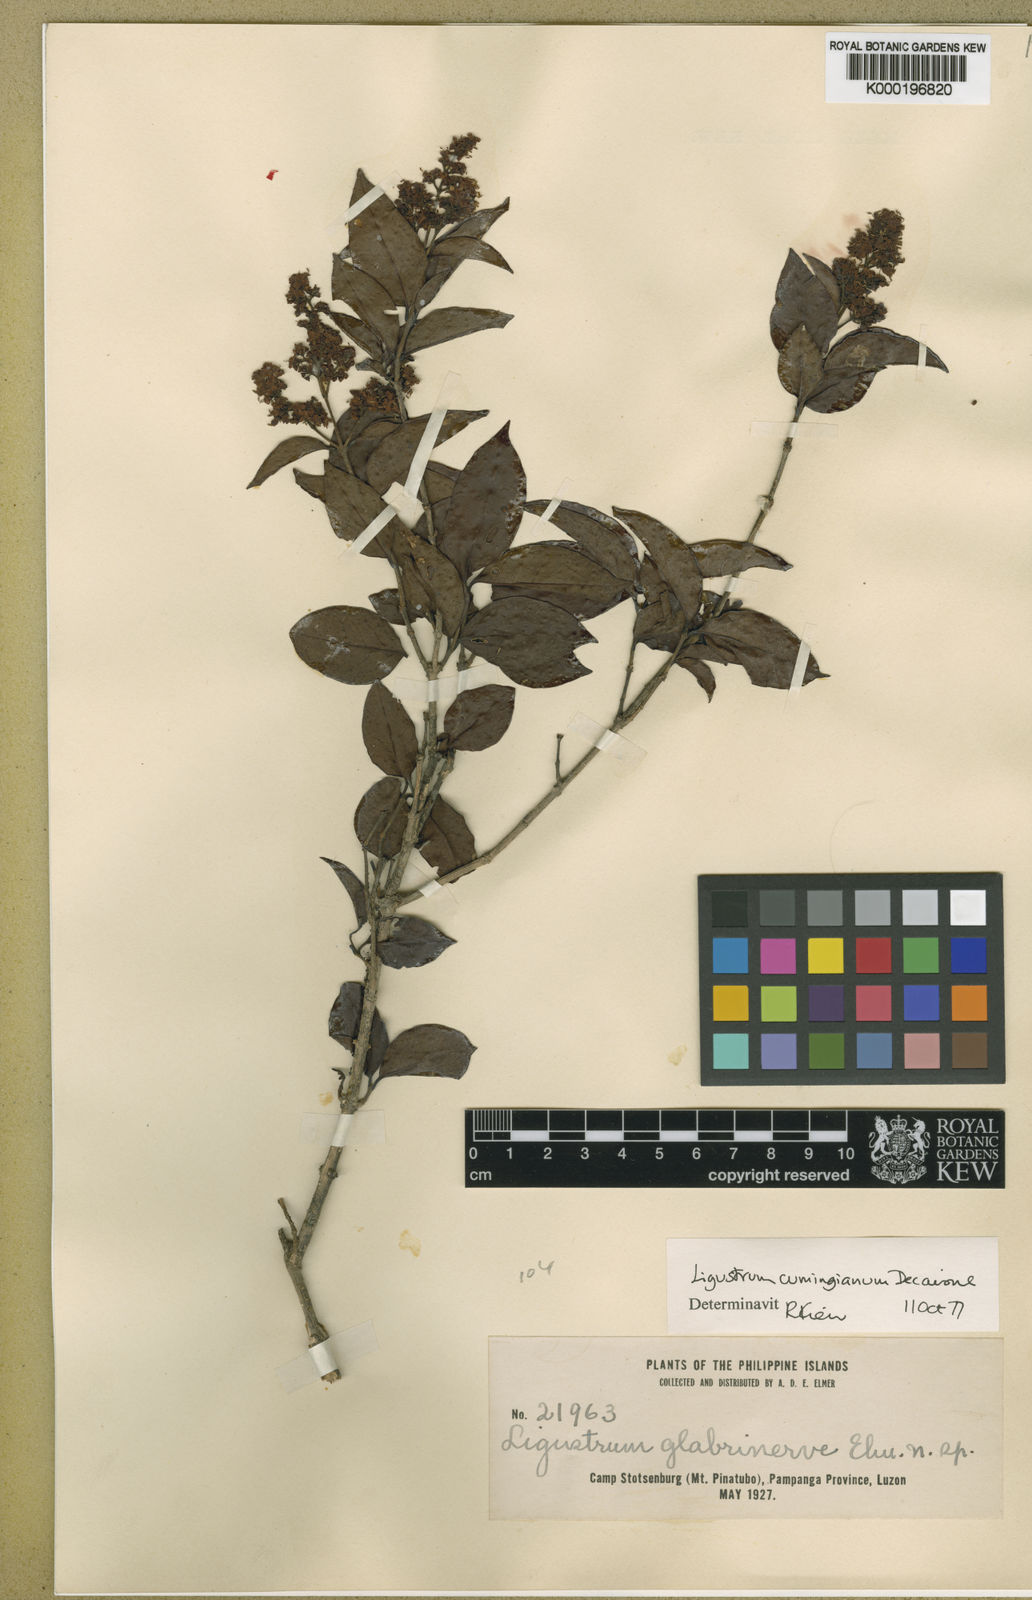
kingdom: Plantae
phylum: Tracheophyta
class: Magnoliopsida
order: Lamiales
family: Oleaceae
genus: Ligustrum
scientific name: Ligustrum cumingianum
